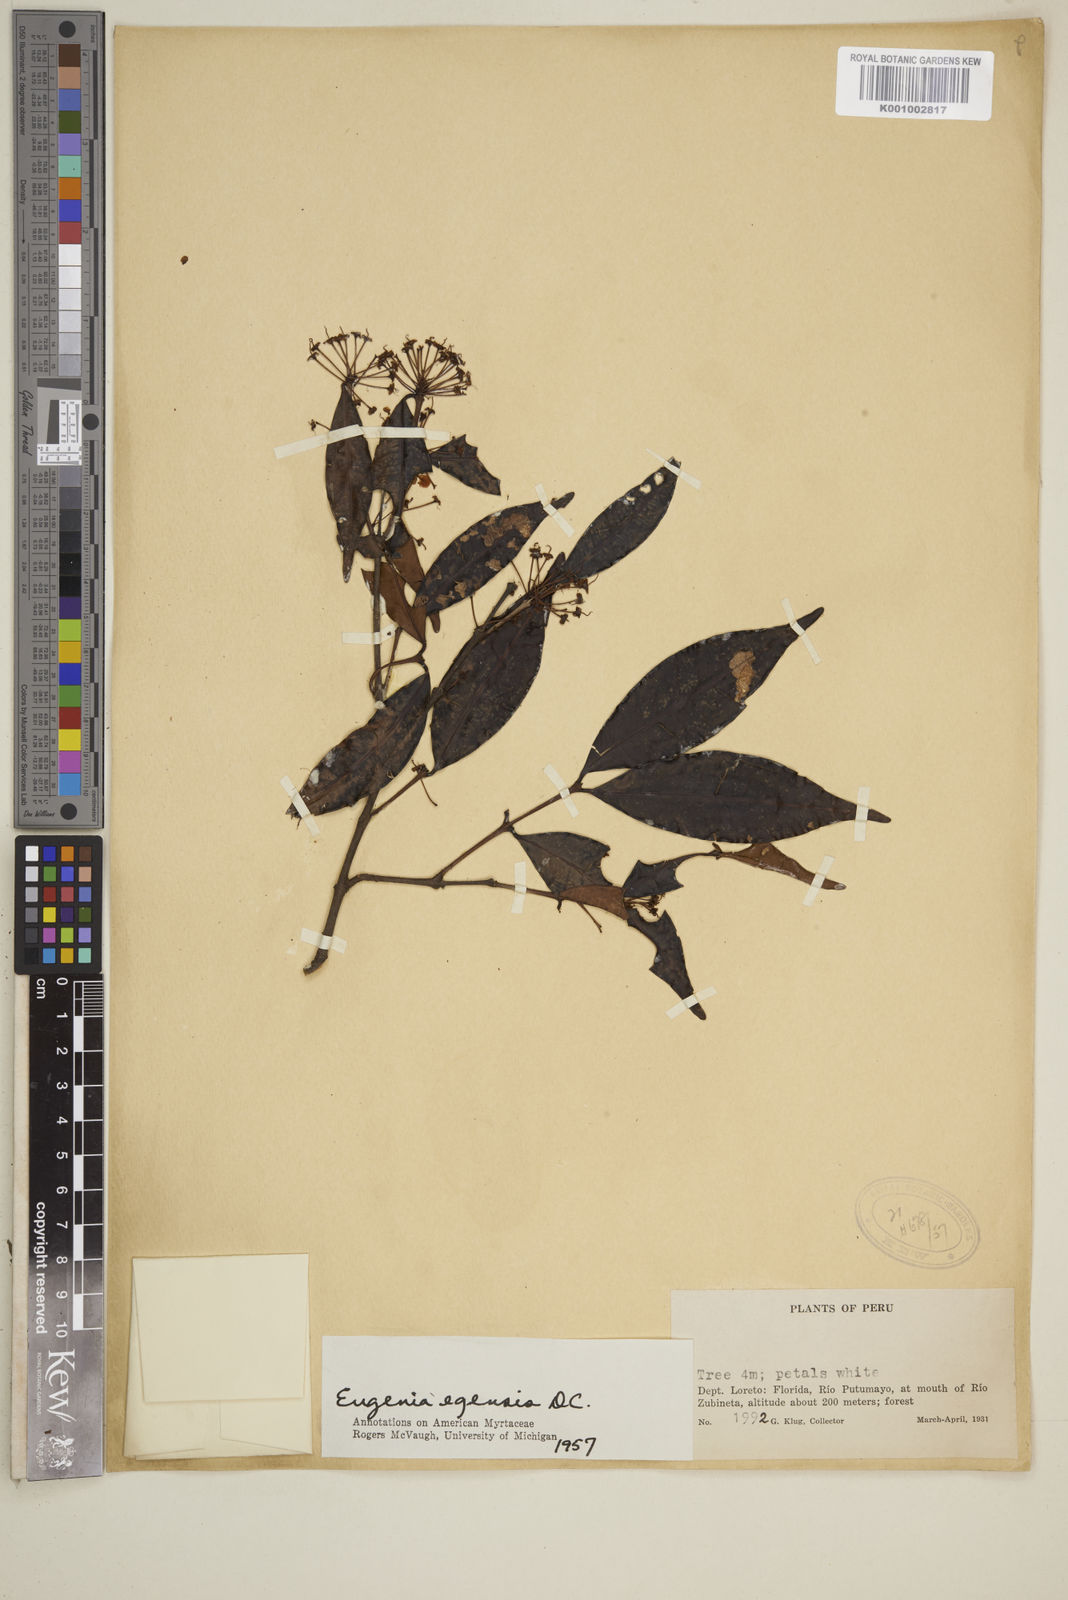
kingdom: Plantae
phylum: Tracheophyta
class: Magnoliopsida
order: Myrtales
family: Myrtaceae
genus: Eugenia
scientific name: Eugenia egensis
